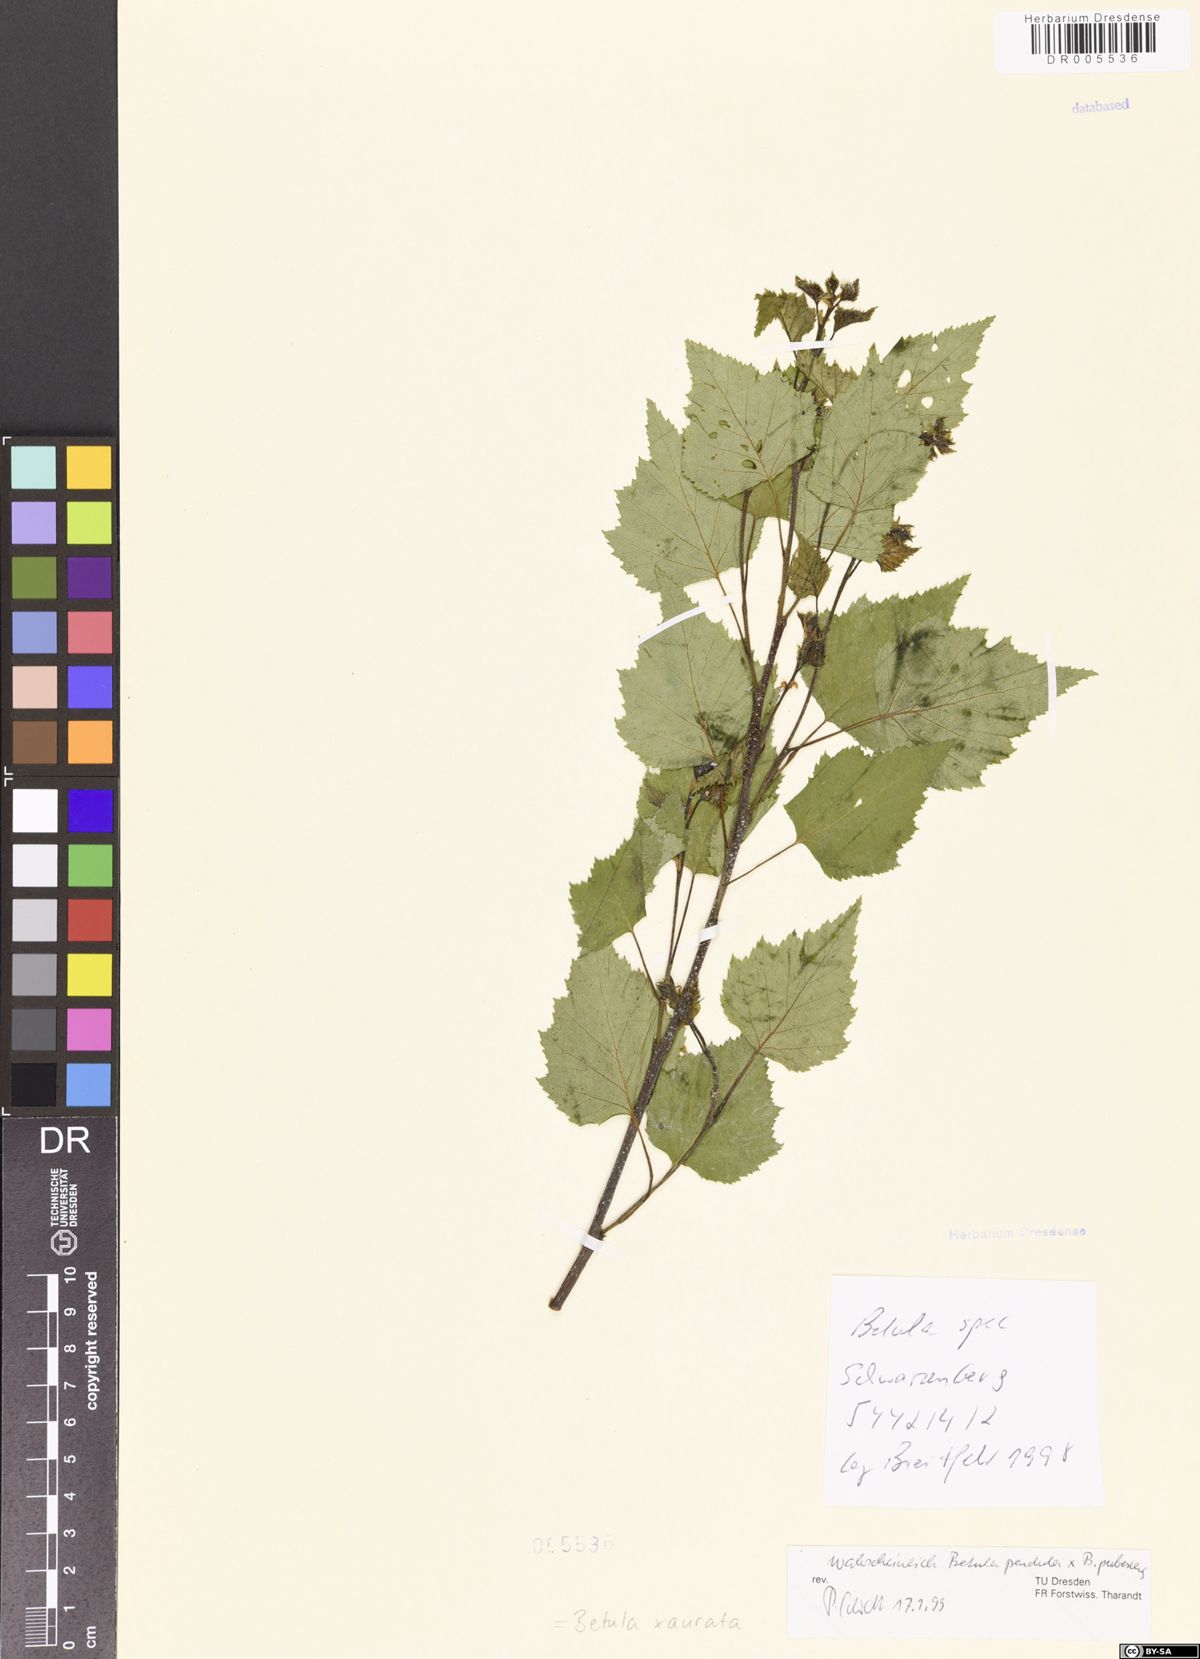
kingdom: Plantae
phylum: Tracheophyta
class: Magnoliopsida
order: Fagales
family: Betulaceae
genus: Betula
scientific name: Betula aurata
